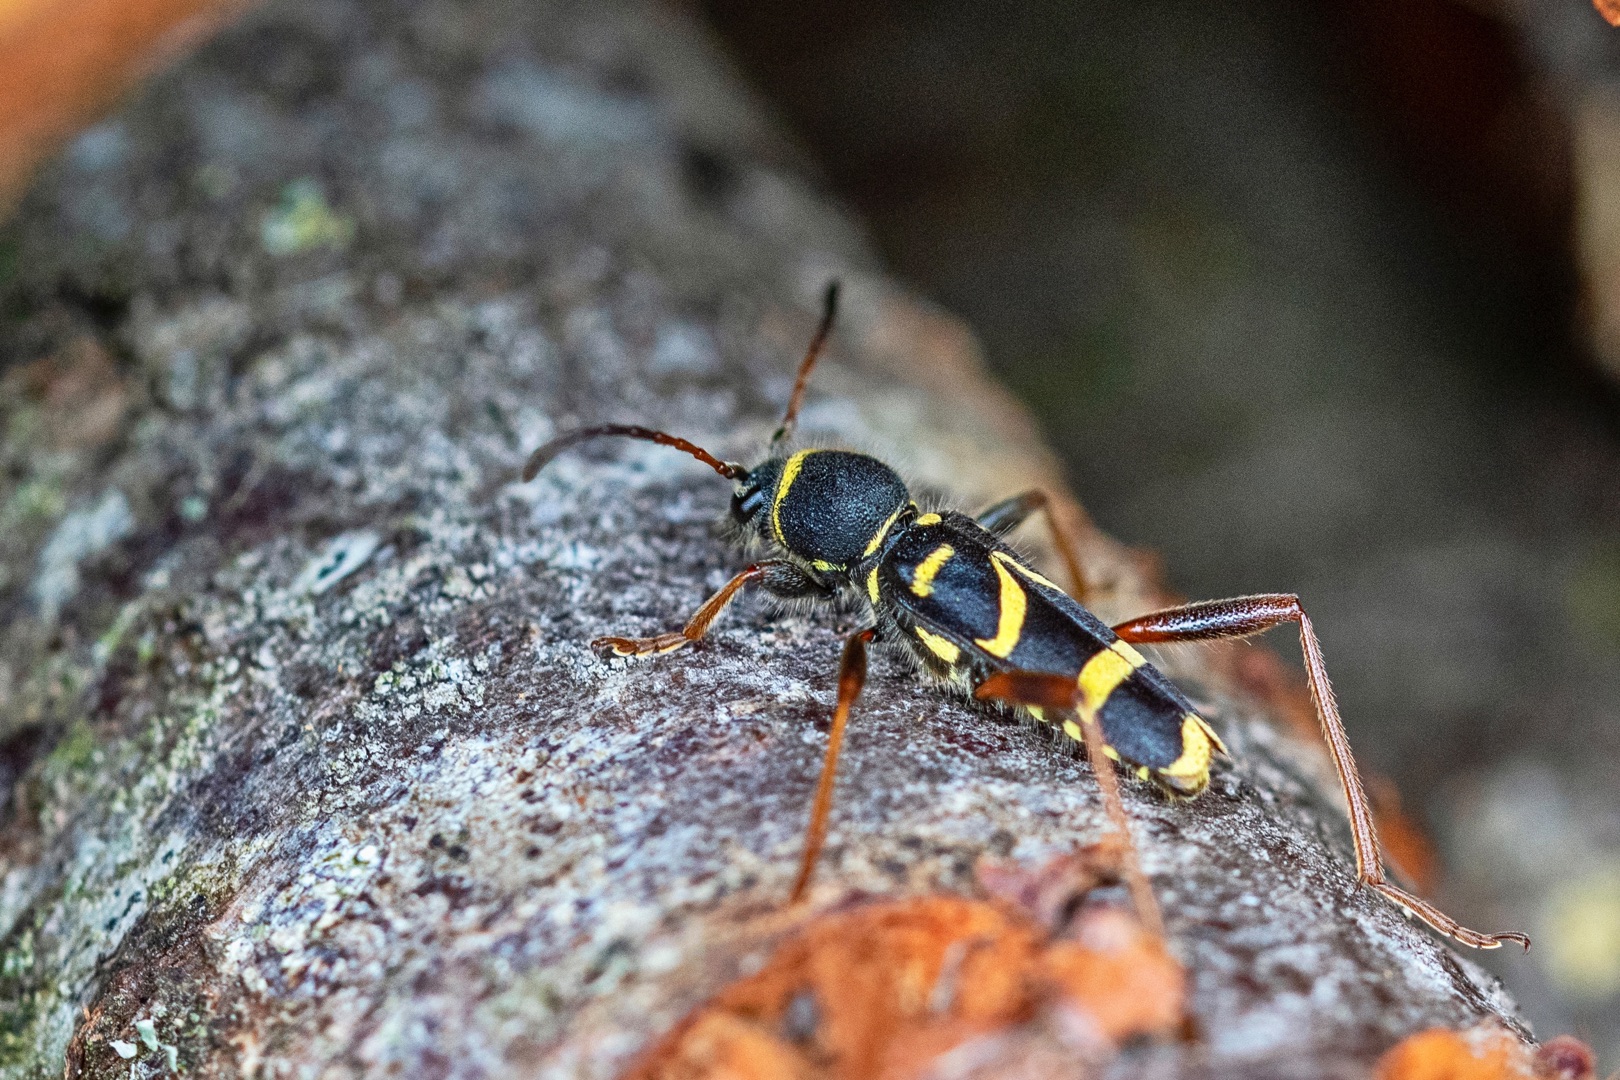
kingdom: Animalia
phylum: Arthropoda
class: Insecta
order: Coleoptera
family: Cerambycidae
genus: Clytus
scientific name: Clytus arietis
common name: Lille hvepsebuk
